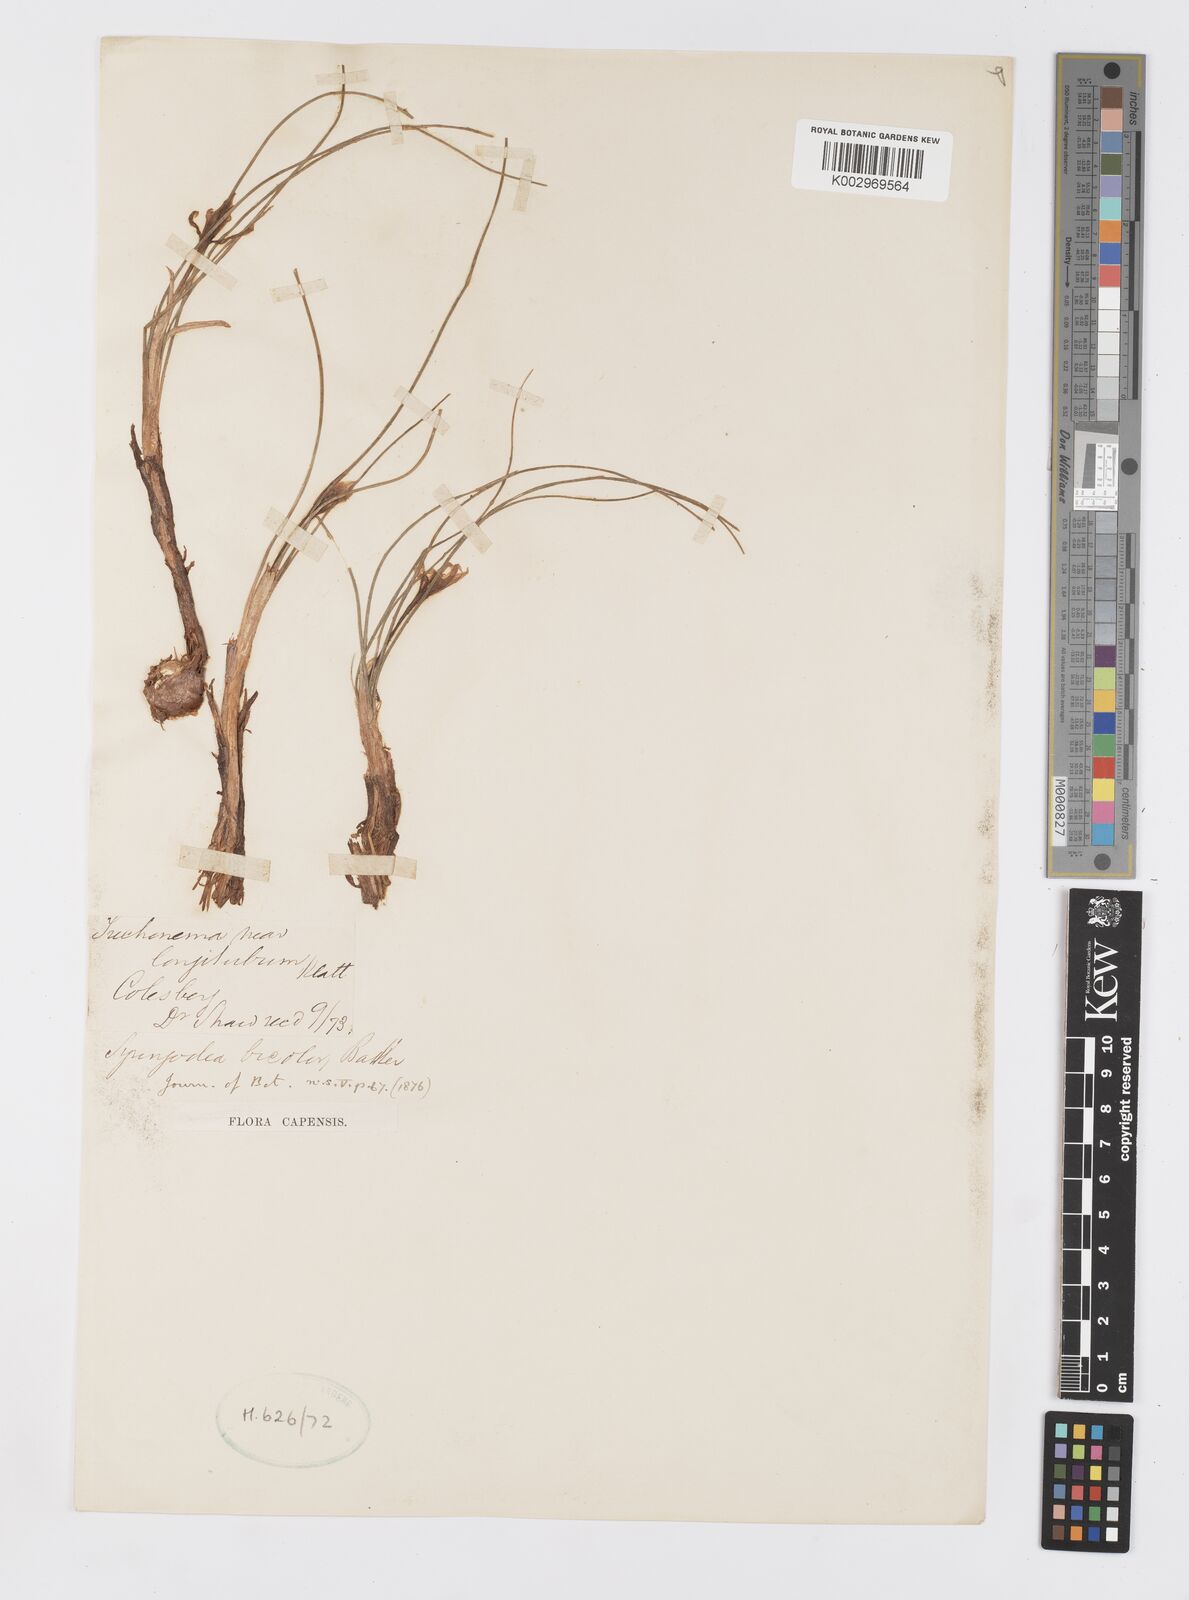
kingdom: Plantae
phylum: Tracheophyta
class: Liliopsida
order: Asparagales
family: Iridaceae
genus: Syringodea
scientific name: Syringodea bifucata
